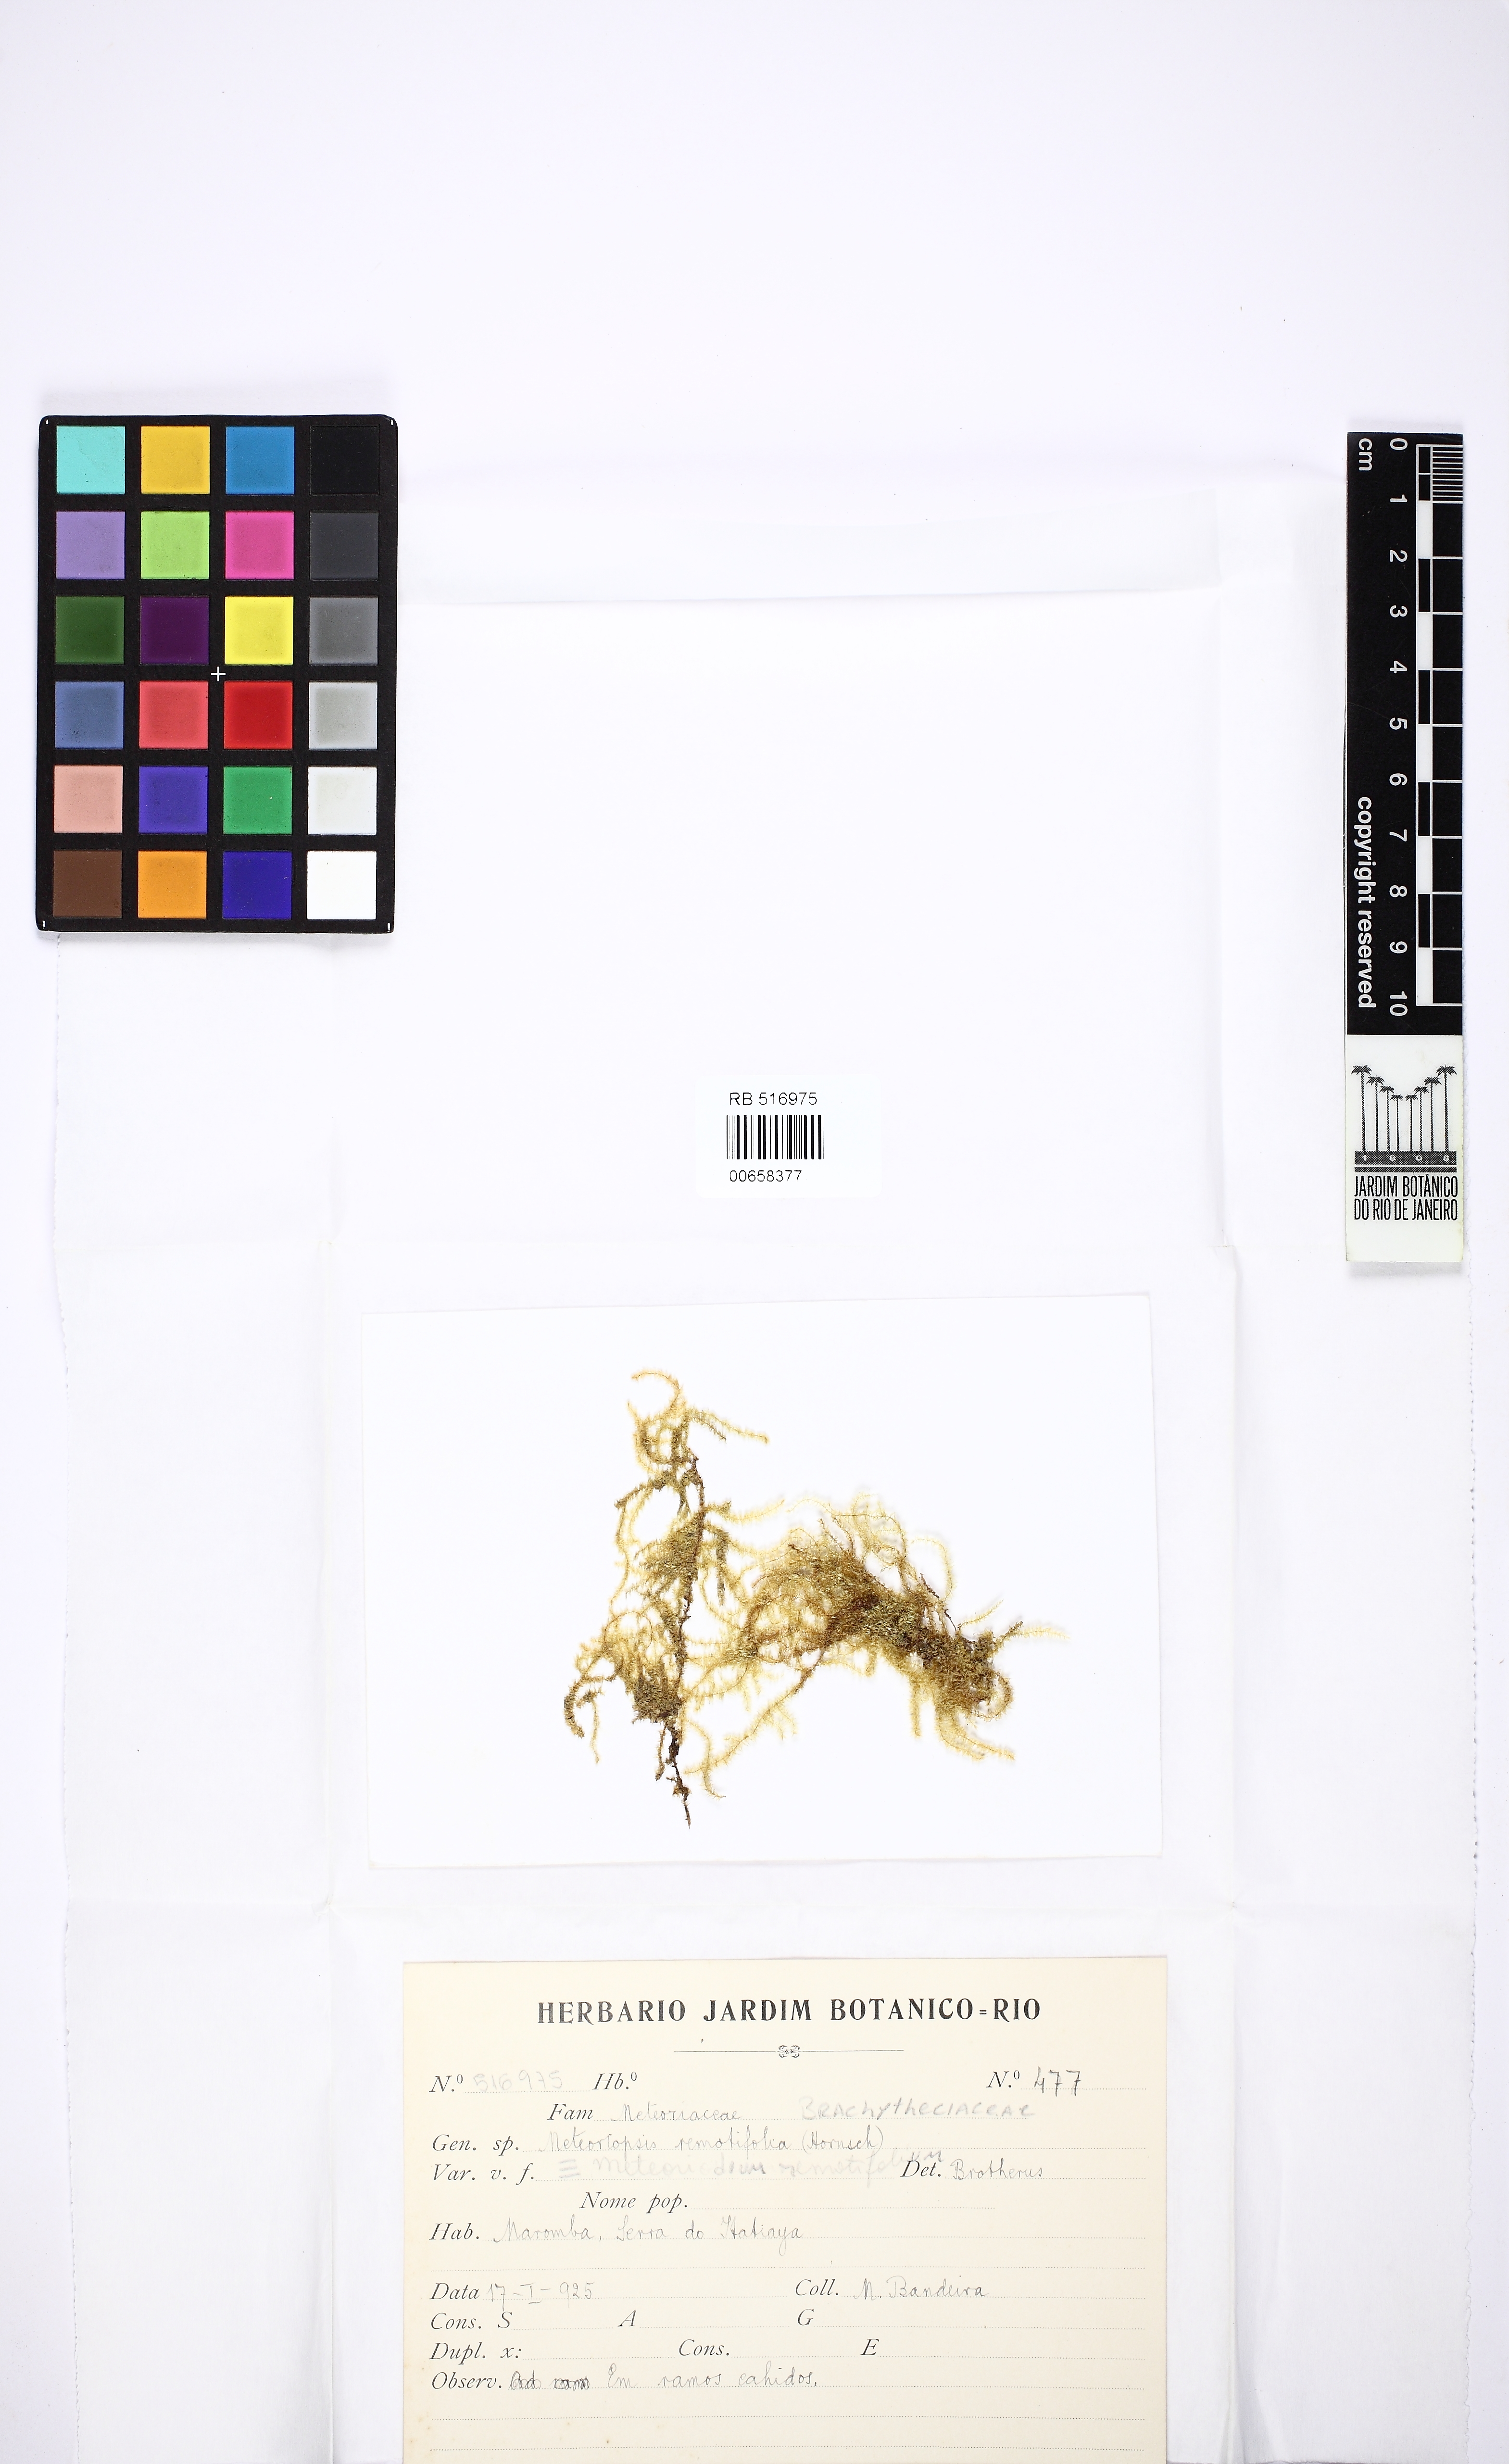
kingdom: Plantae
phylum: Bryophyta
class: Bryopsida
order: Hypnales
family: Brachytheciaceae
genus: Meteoridium
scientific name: Meteoridium remotifolium
